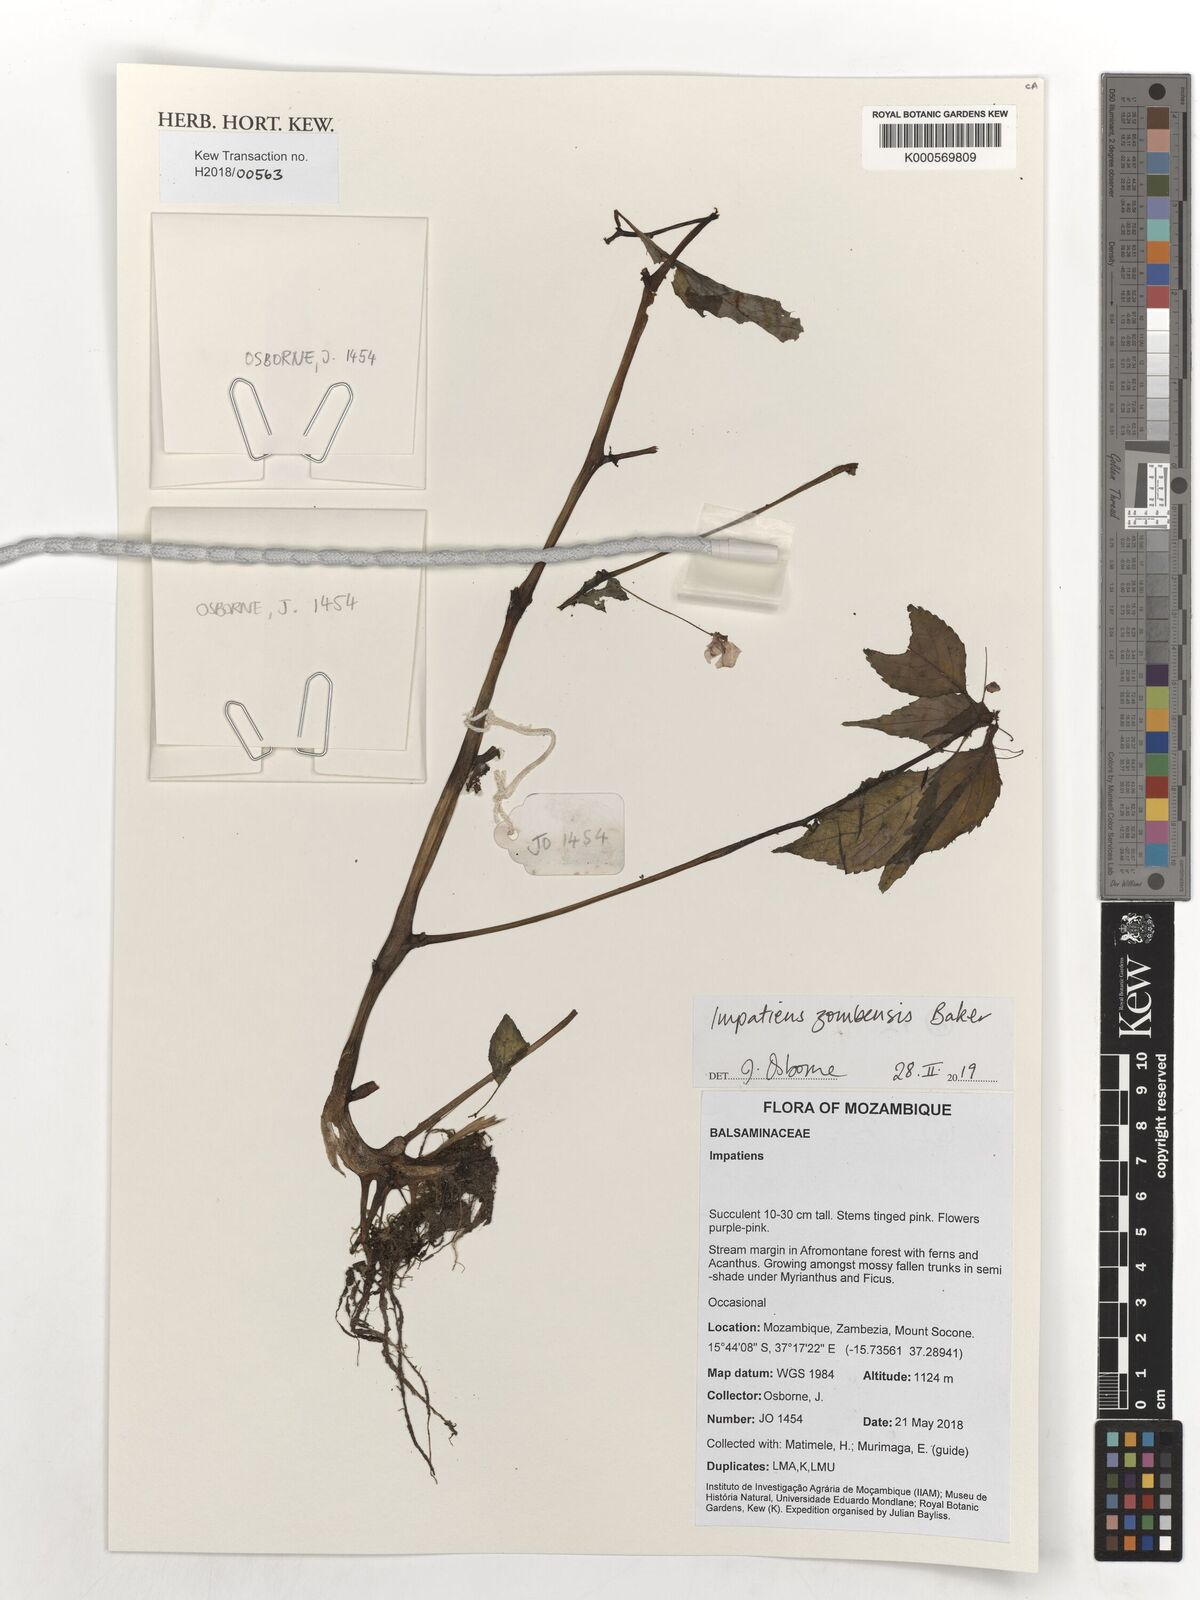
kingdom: Plantae
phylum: Tracheophyta
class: Magnoliopsida
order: Ericales
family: Balsaminaceae
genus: Impatiens
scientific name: Impatiens zombensis
